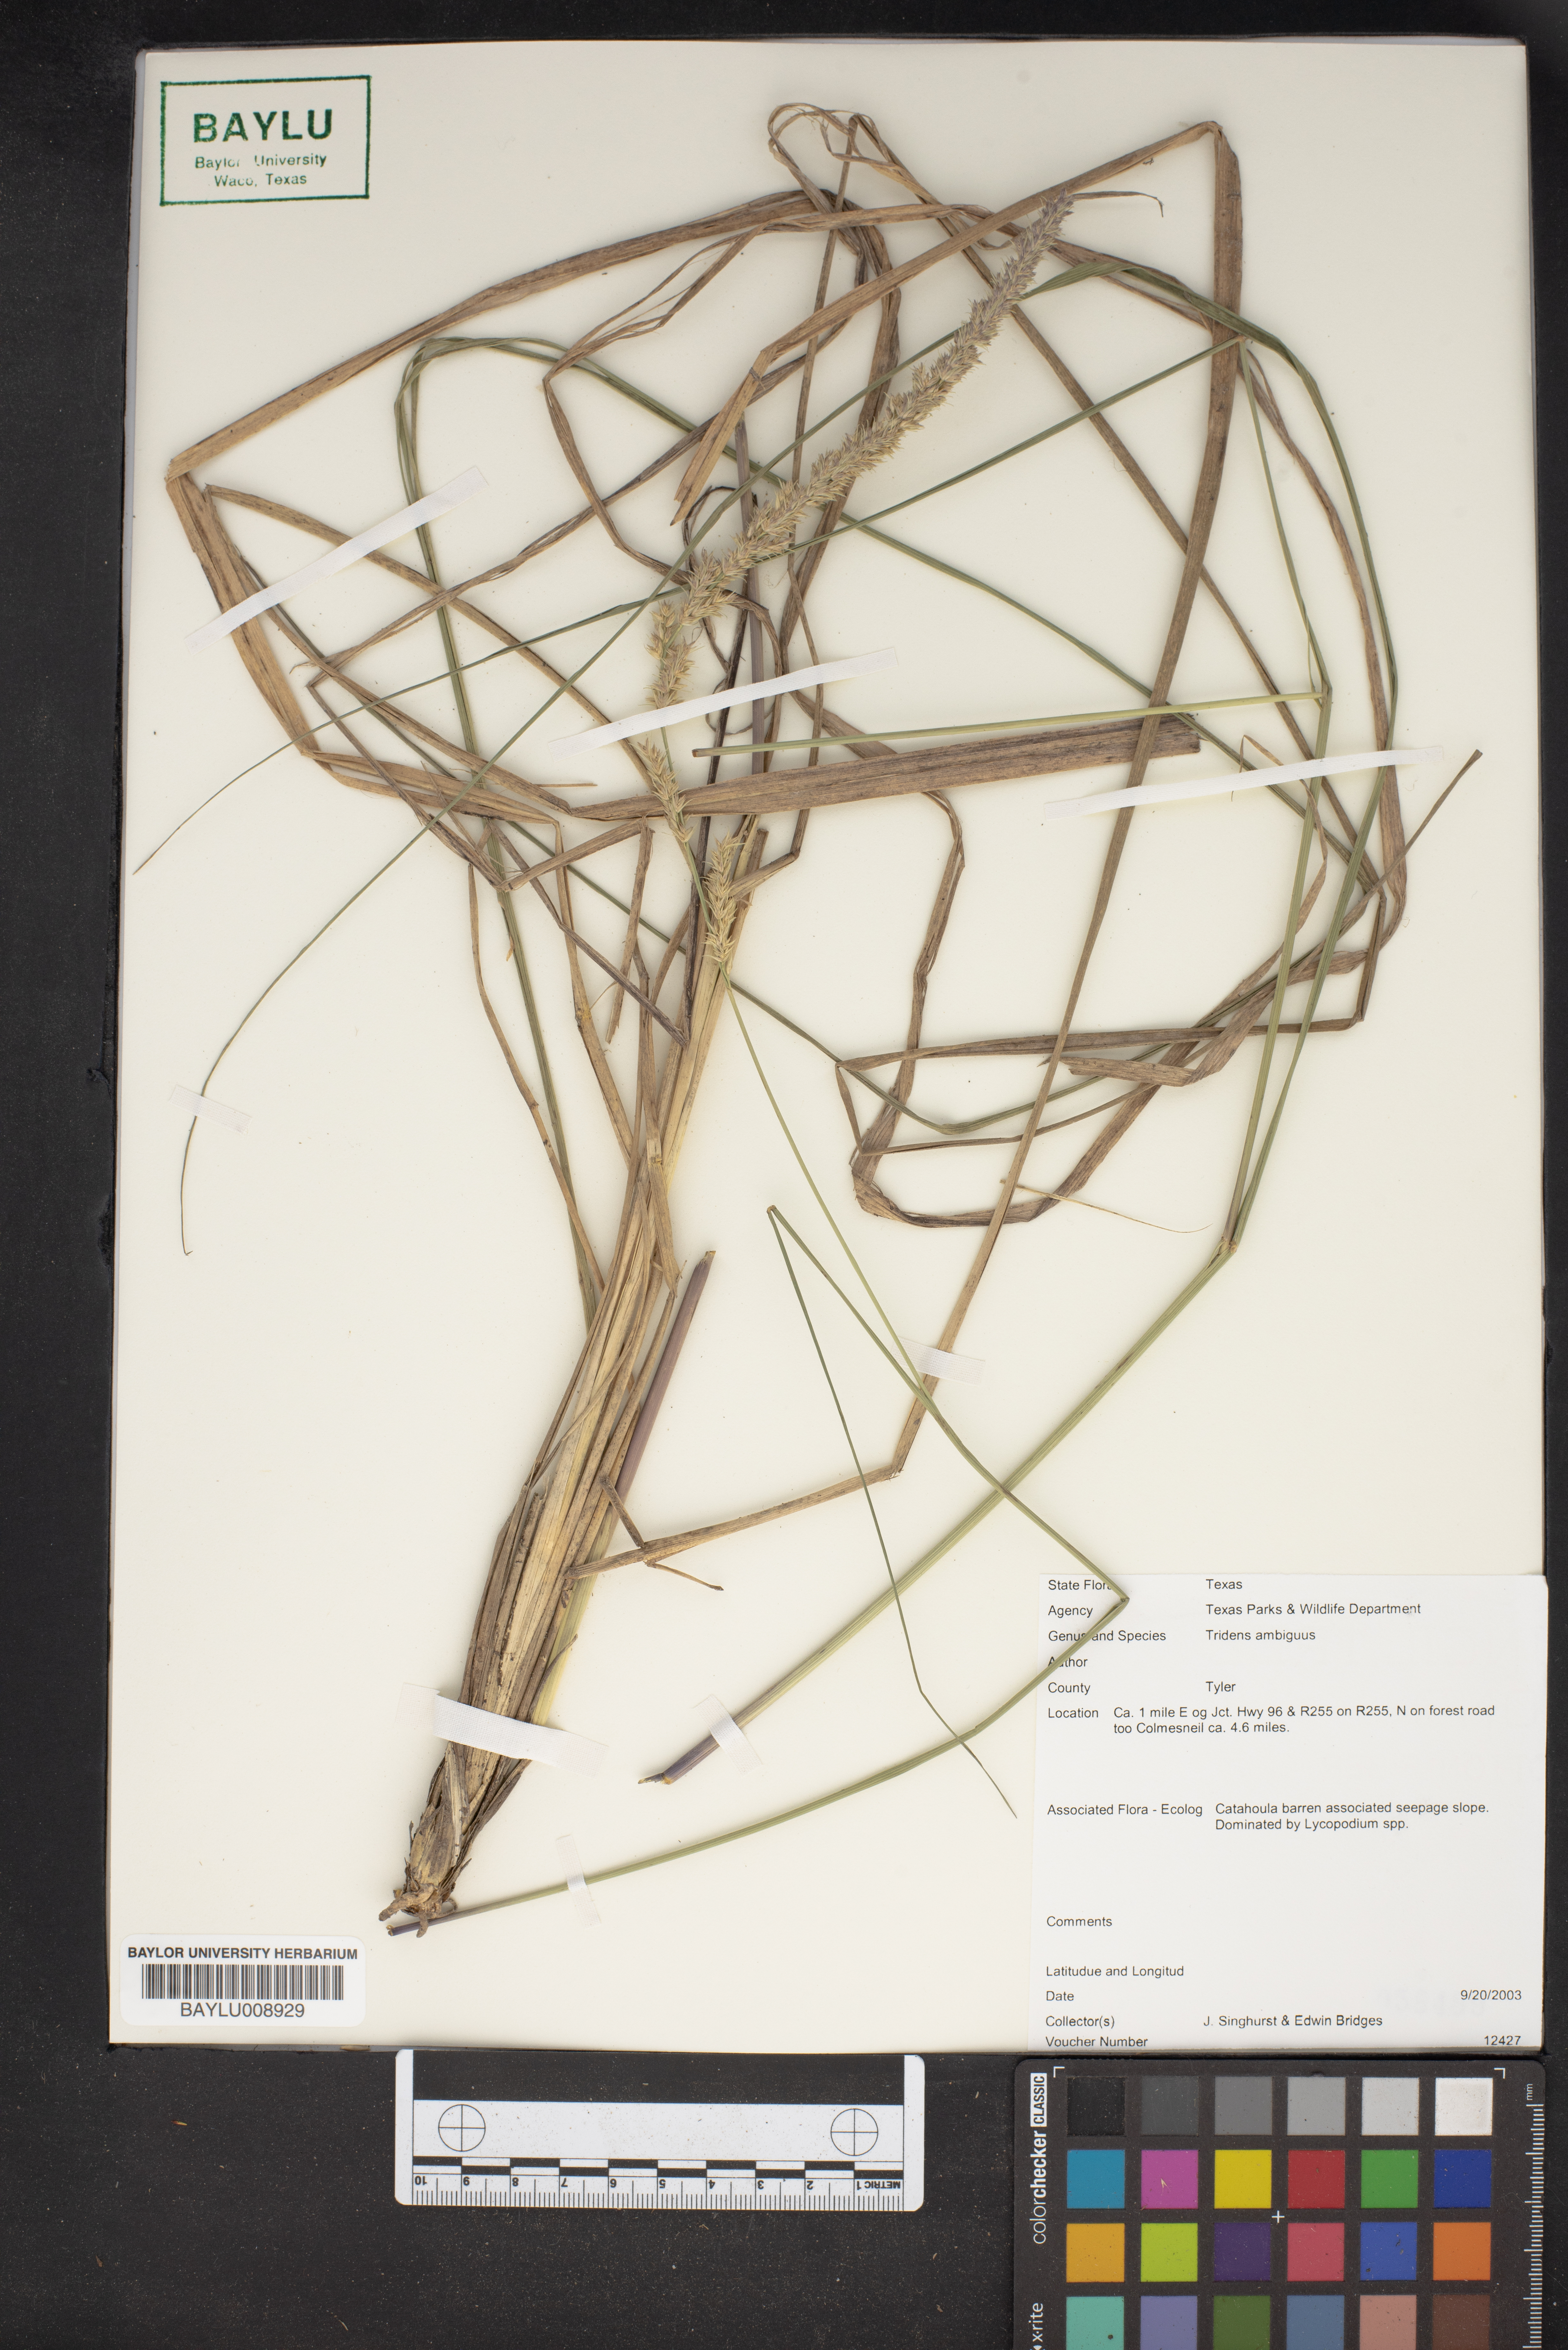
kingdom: Plantae
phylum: Tracheophyta
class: Liliopsida
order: Poales
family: Poaceae
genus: Tridens
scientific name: Tridens ambiguus
